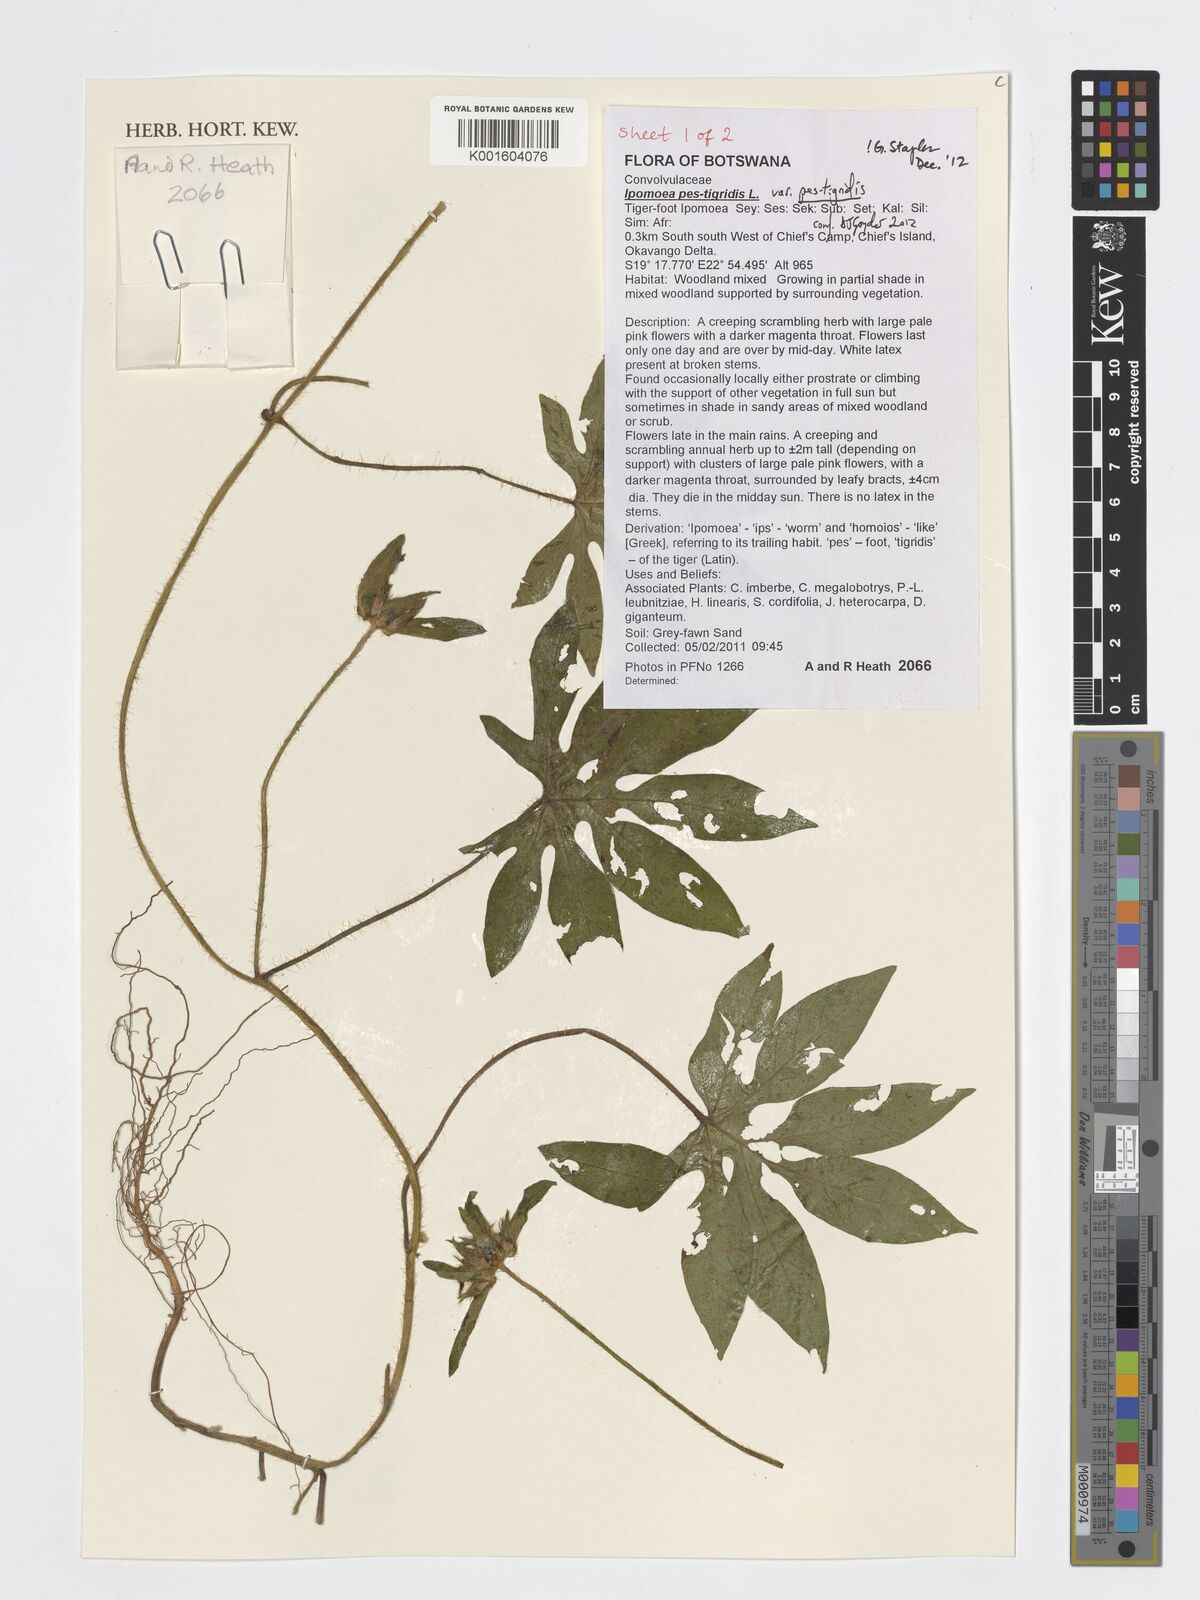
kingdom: Plantae
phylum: Tracheophyta
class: Magnoliopsida
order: Solanales
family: Convolvulaceae
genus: Ipomoea
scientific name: Ipomoea pes-tigridis
